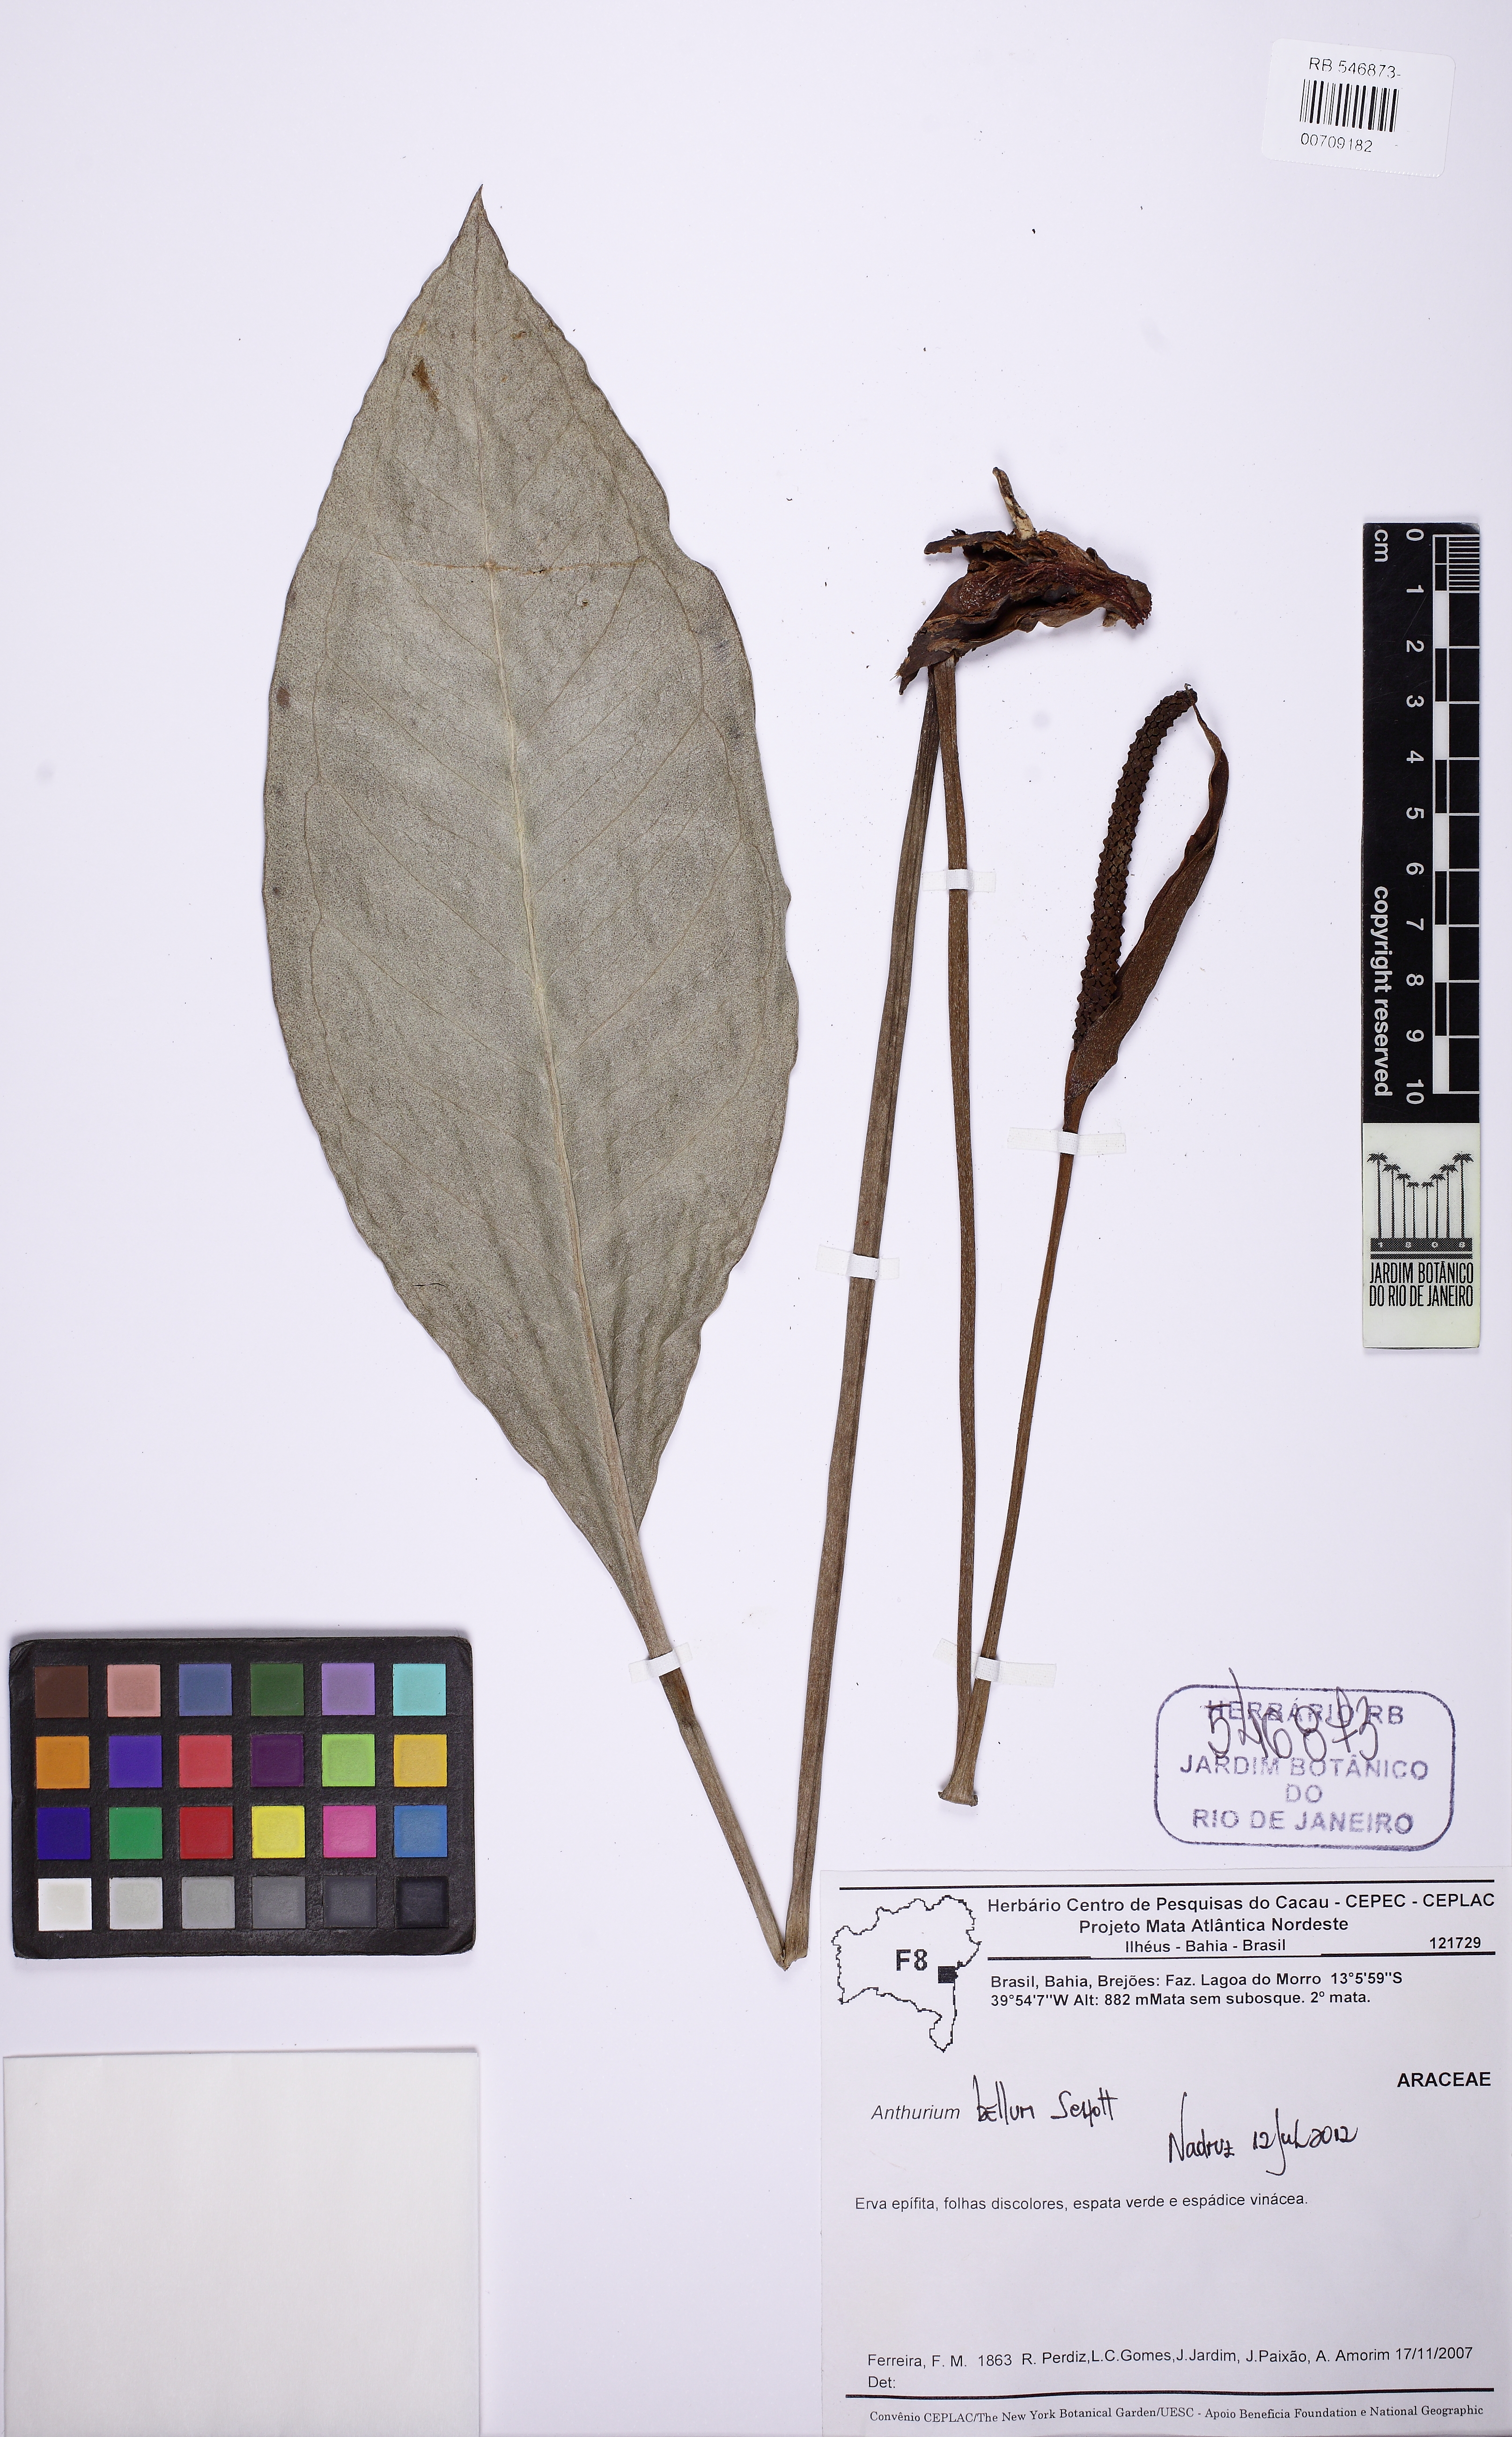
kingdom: Plantae
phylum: Tracheophyta
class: Liliopsida
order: Alismatales
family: Araceae
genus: Anthurium
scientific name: Anthurium bellum
